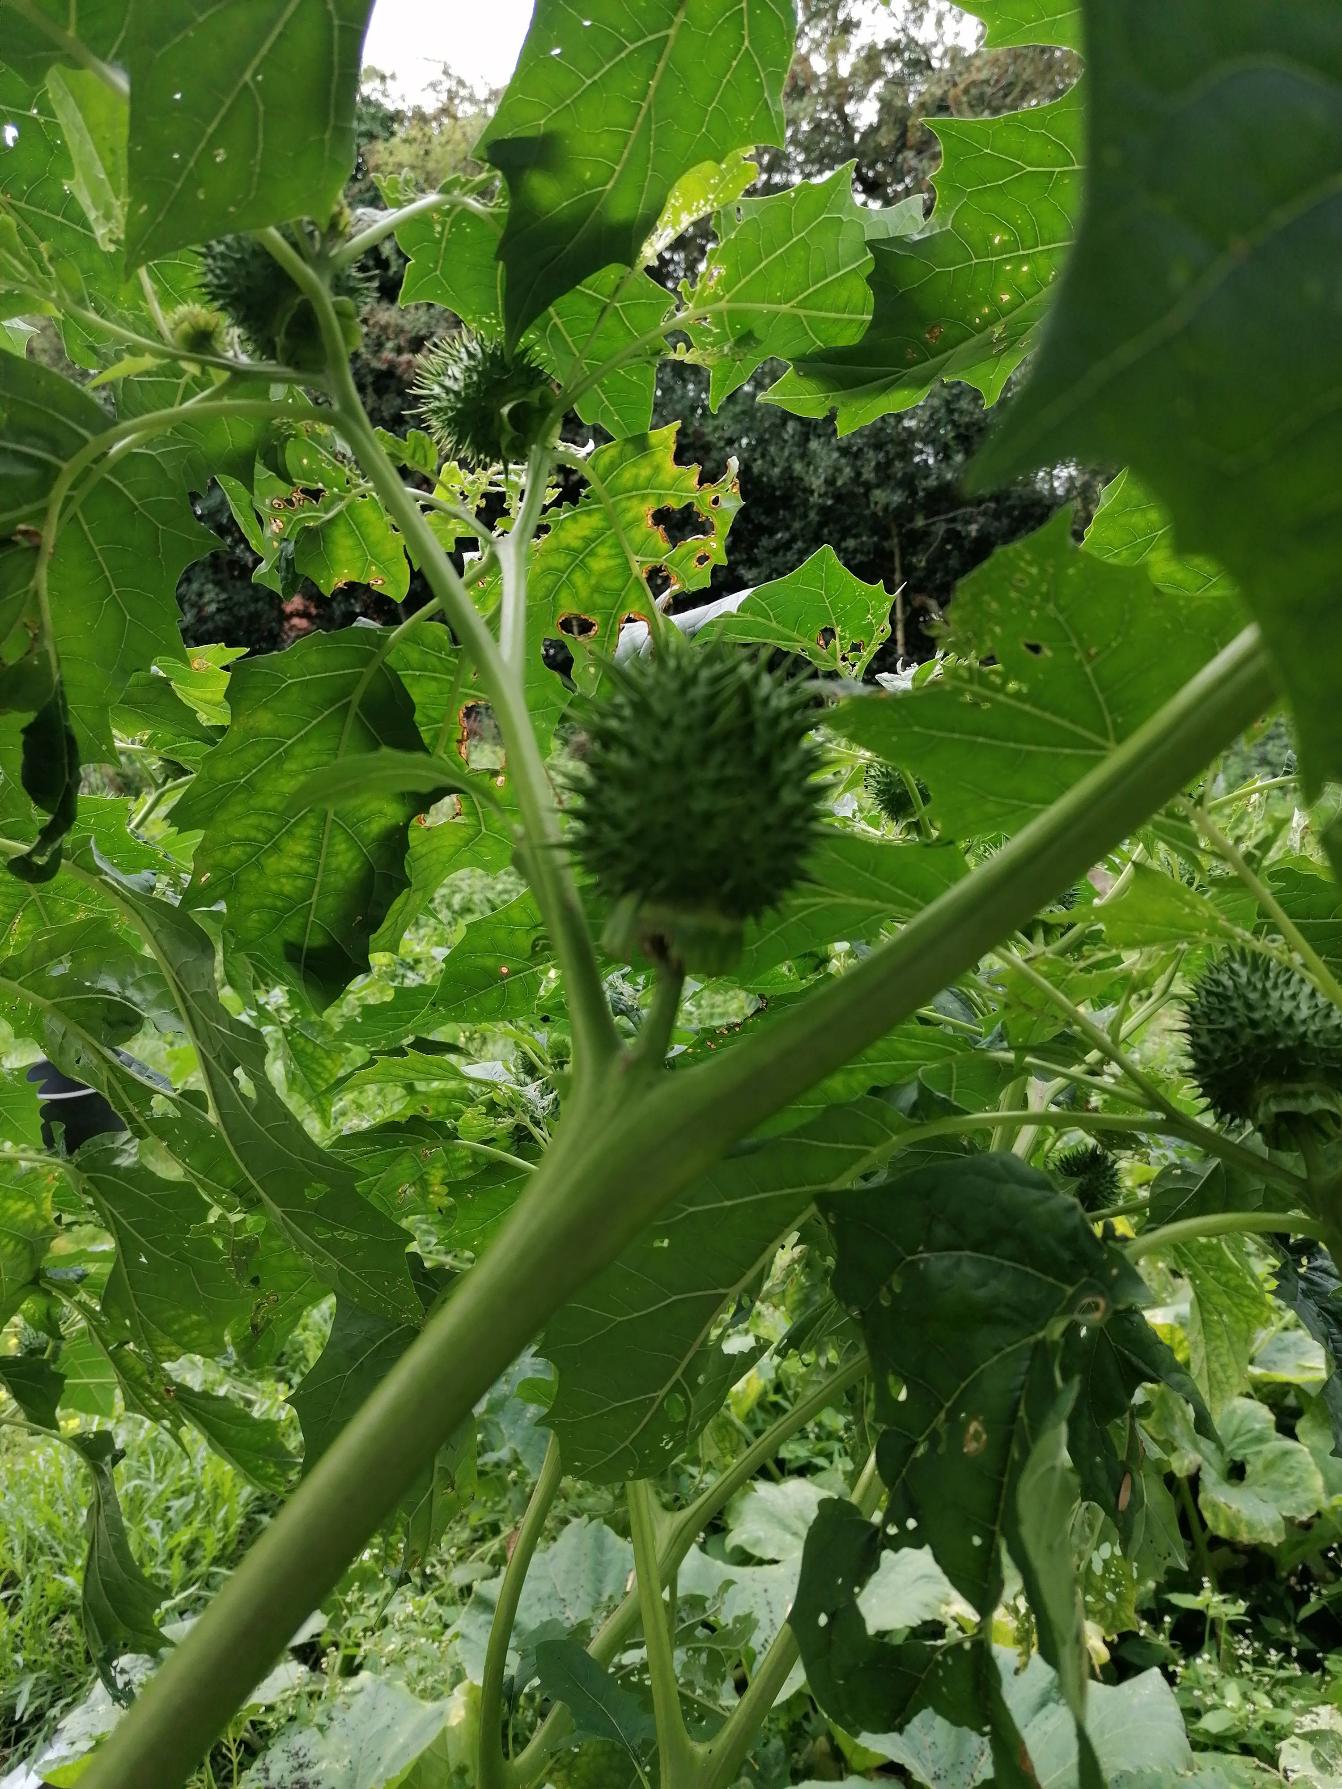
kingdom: Plantae
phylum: Tracheophyta
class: Magnoliopsida
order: Solanales
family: Solanaceae
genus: Datura
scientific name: Datura stramonium
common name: Hvid pigæble
